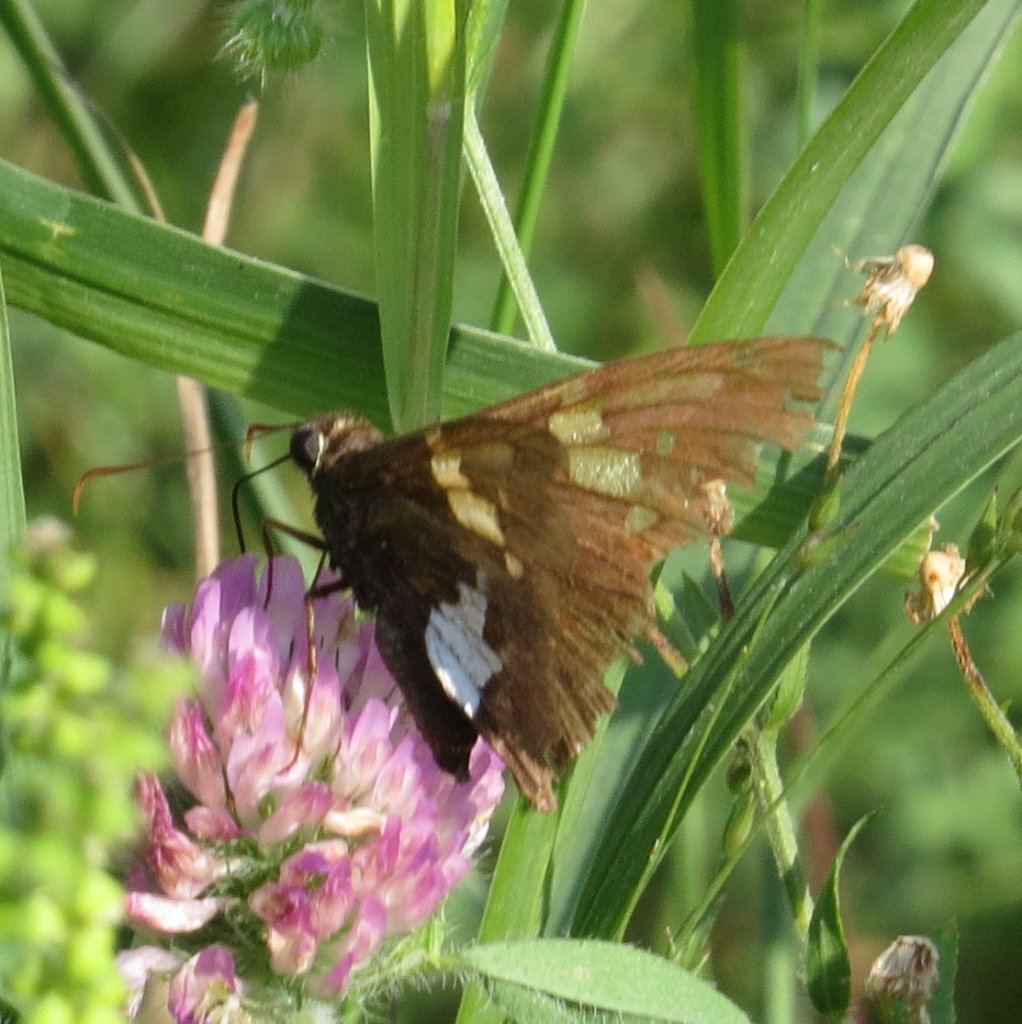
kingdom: Animalia
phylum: Arthropoda
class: Insecta
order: Lepidoptera
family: Hesperiidae
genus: Epargyreus
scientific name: Epargyreus clarus
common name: Silver-spotted Skipper
